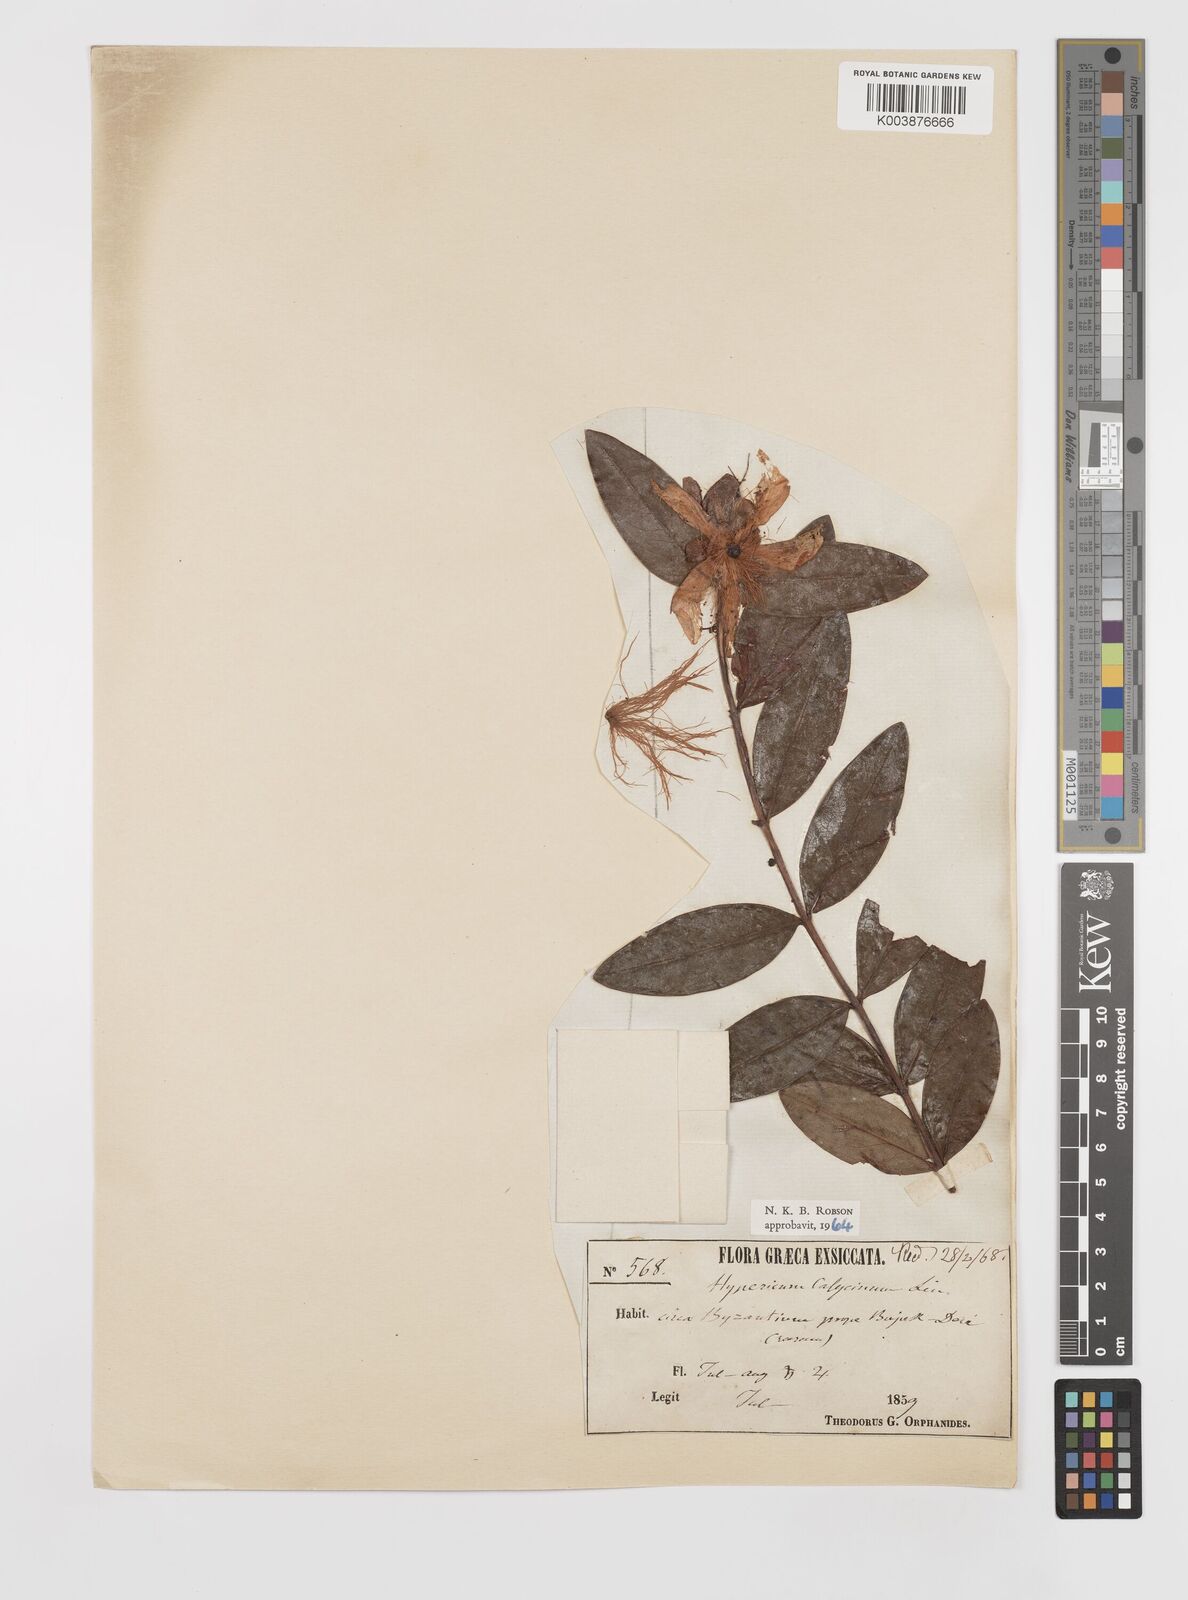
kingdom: Plantae
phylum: Tracheophyta
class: Magnoliopsida
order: Malpighiales
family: Hypericaceae
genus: Hypericum
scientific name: Hypericum calycinum
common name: Rose-of-sharon
